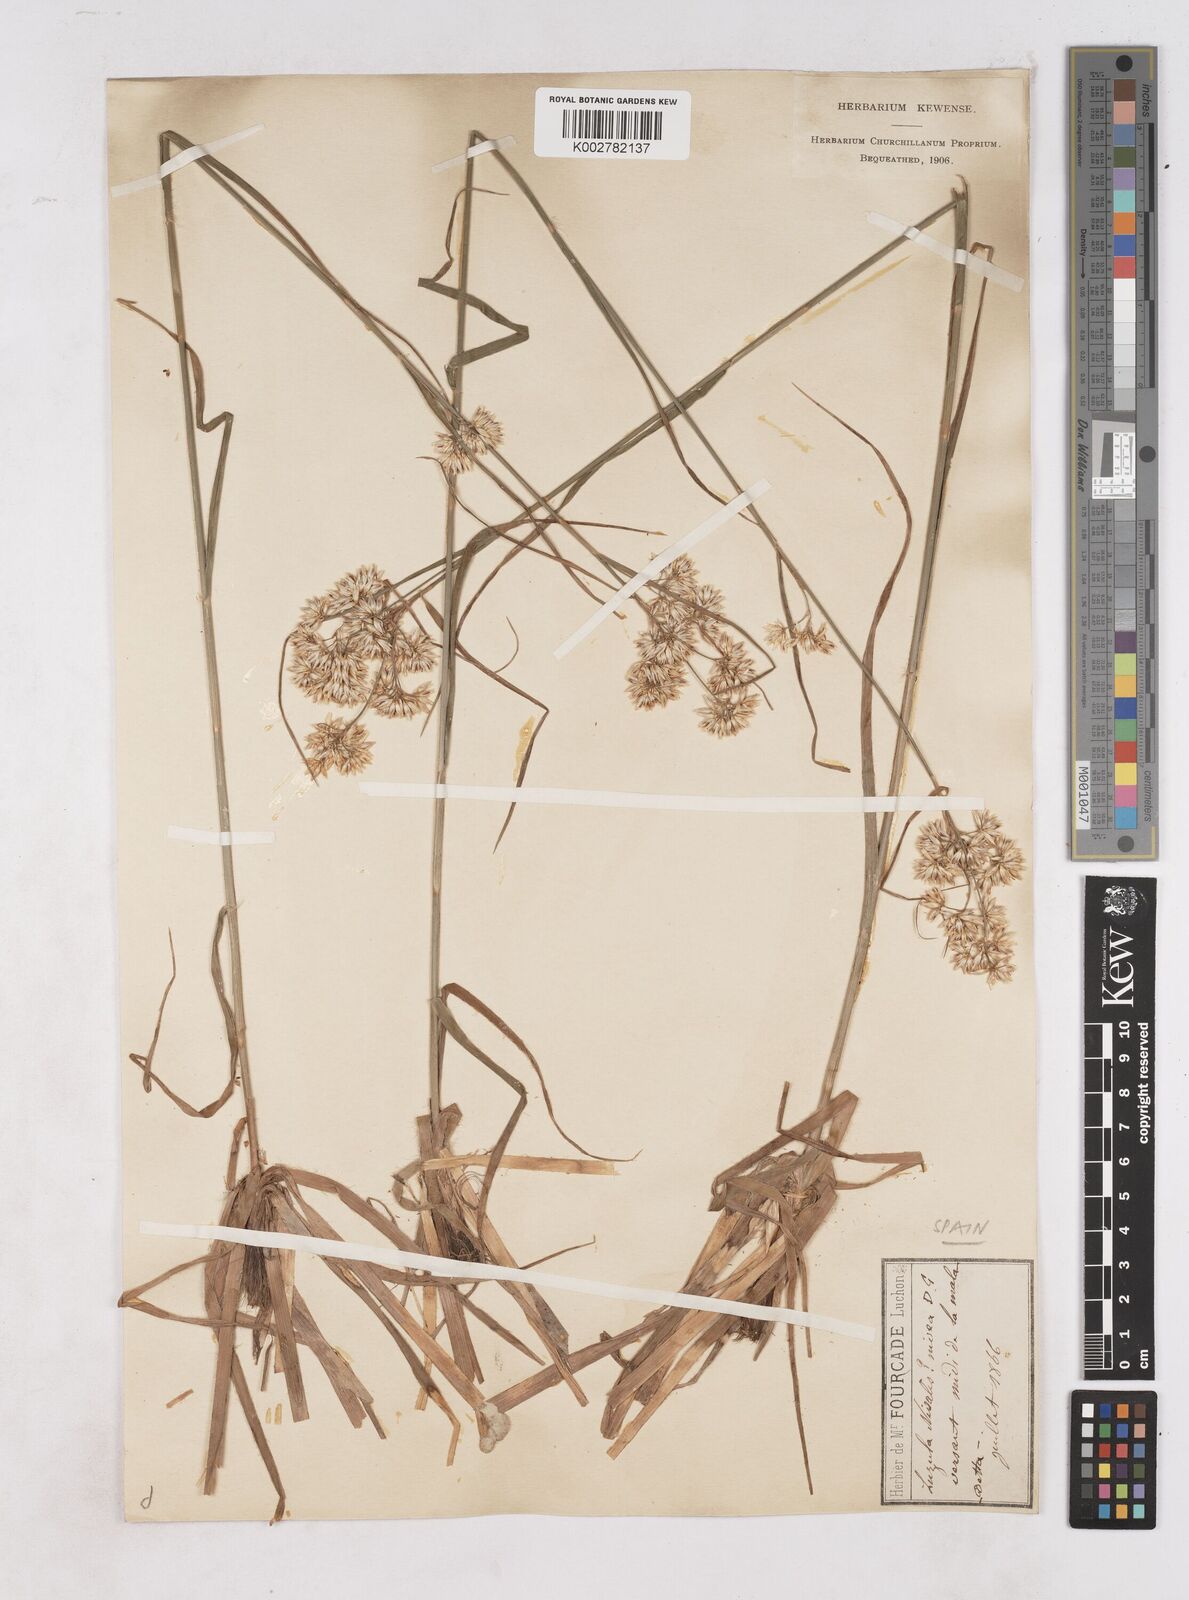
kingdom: Plantae
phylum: Tracheophyta
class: Liliopsida
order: Poales
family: Juncaceae
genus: Luzula
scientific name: Luzula nivea
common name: Snow-white wood-rush
